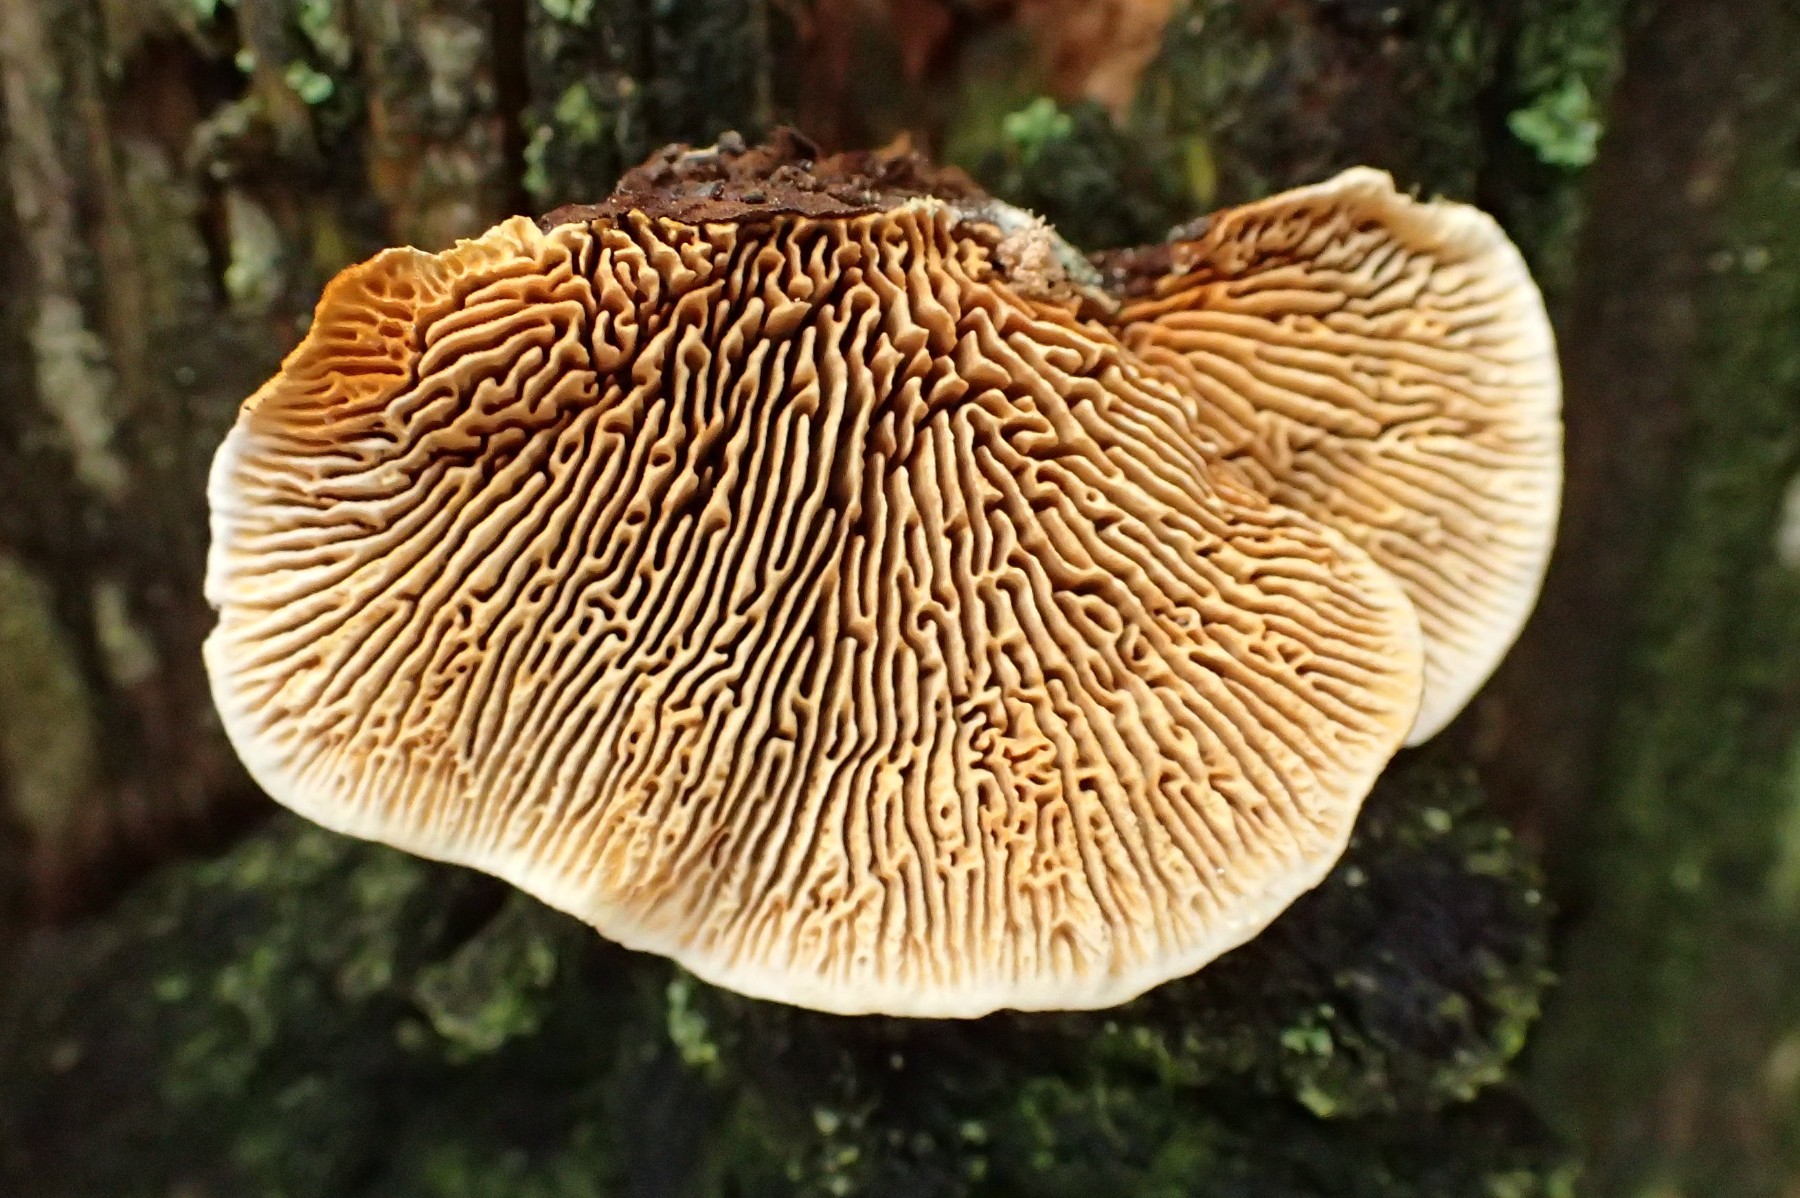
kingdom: Fungi
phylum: Basidiomycota
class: Agaricomycetes
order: Gloeophyllales
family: Gloeophyllaceae
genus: Gloeophyllum
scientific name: Gloeophyllum sepiarium
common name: fyrre-korkhat
